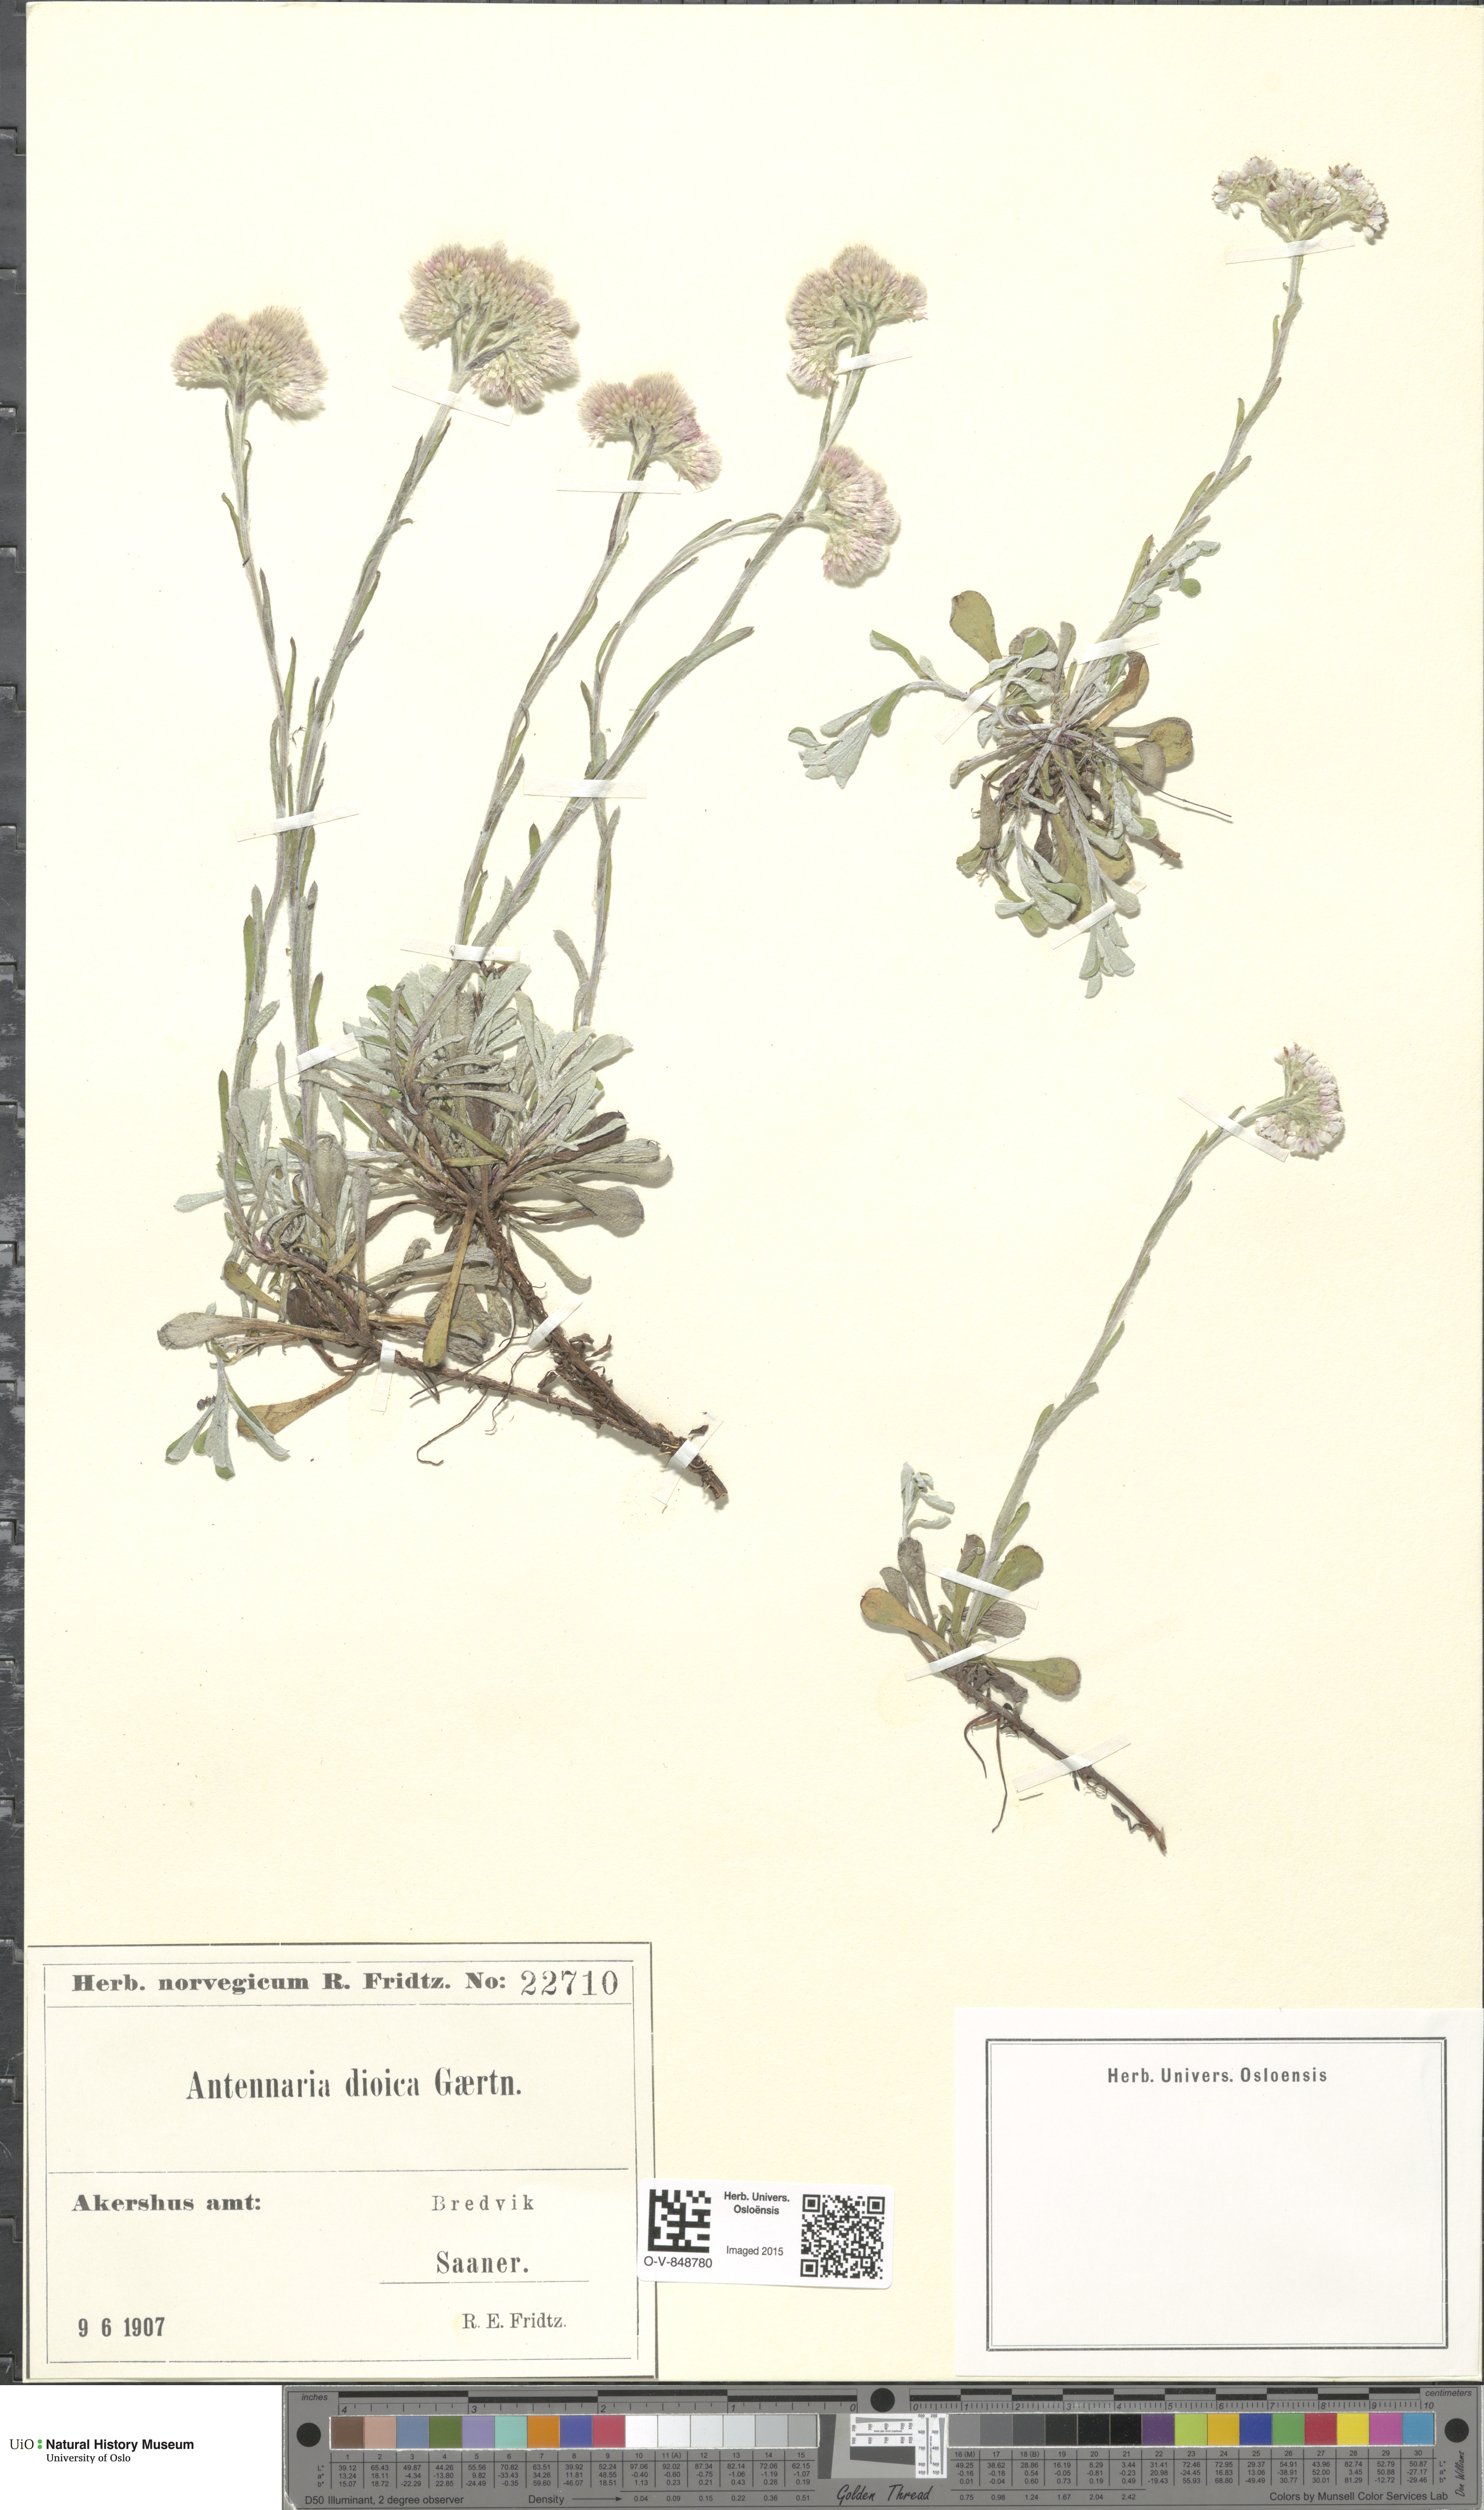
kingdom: Plantae
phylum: Tracheophyta
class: Magnoliopsida
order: Asterales
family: Asteraceae
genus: Antennaria
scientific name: Antennaria dioica
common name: Mountain everlasting
